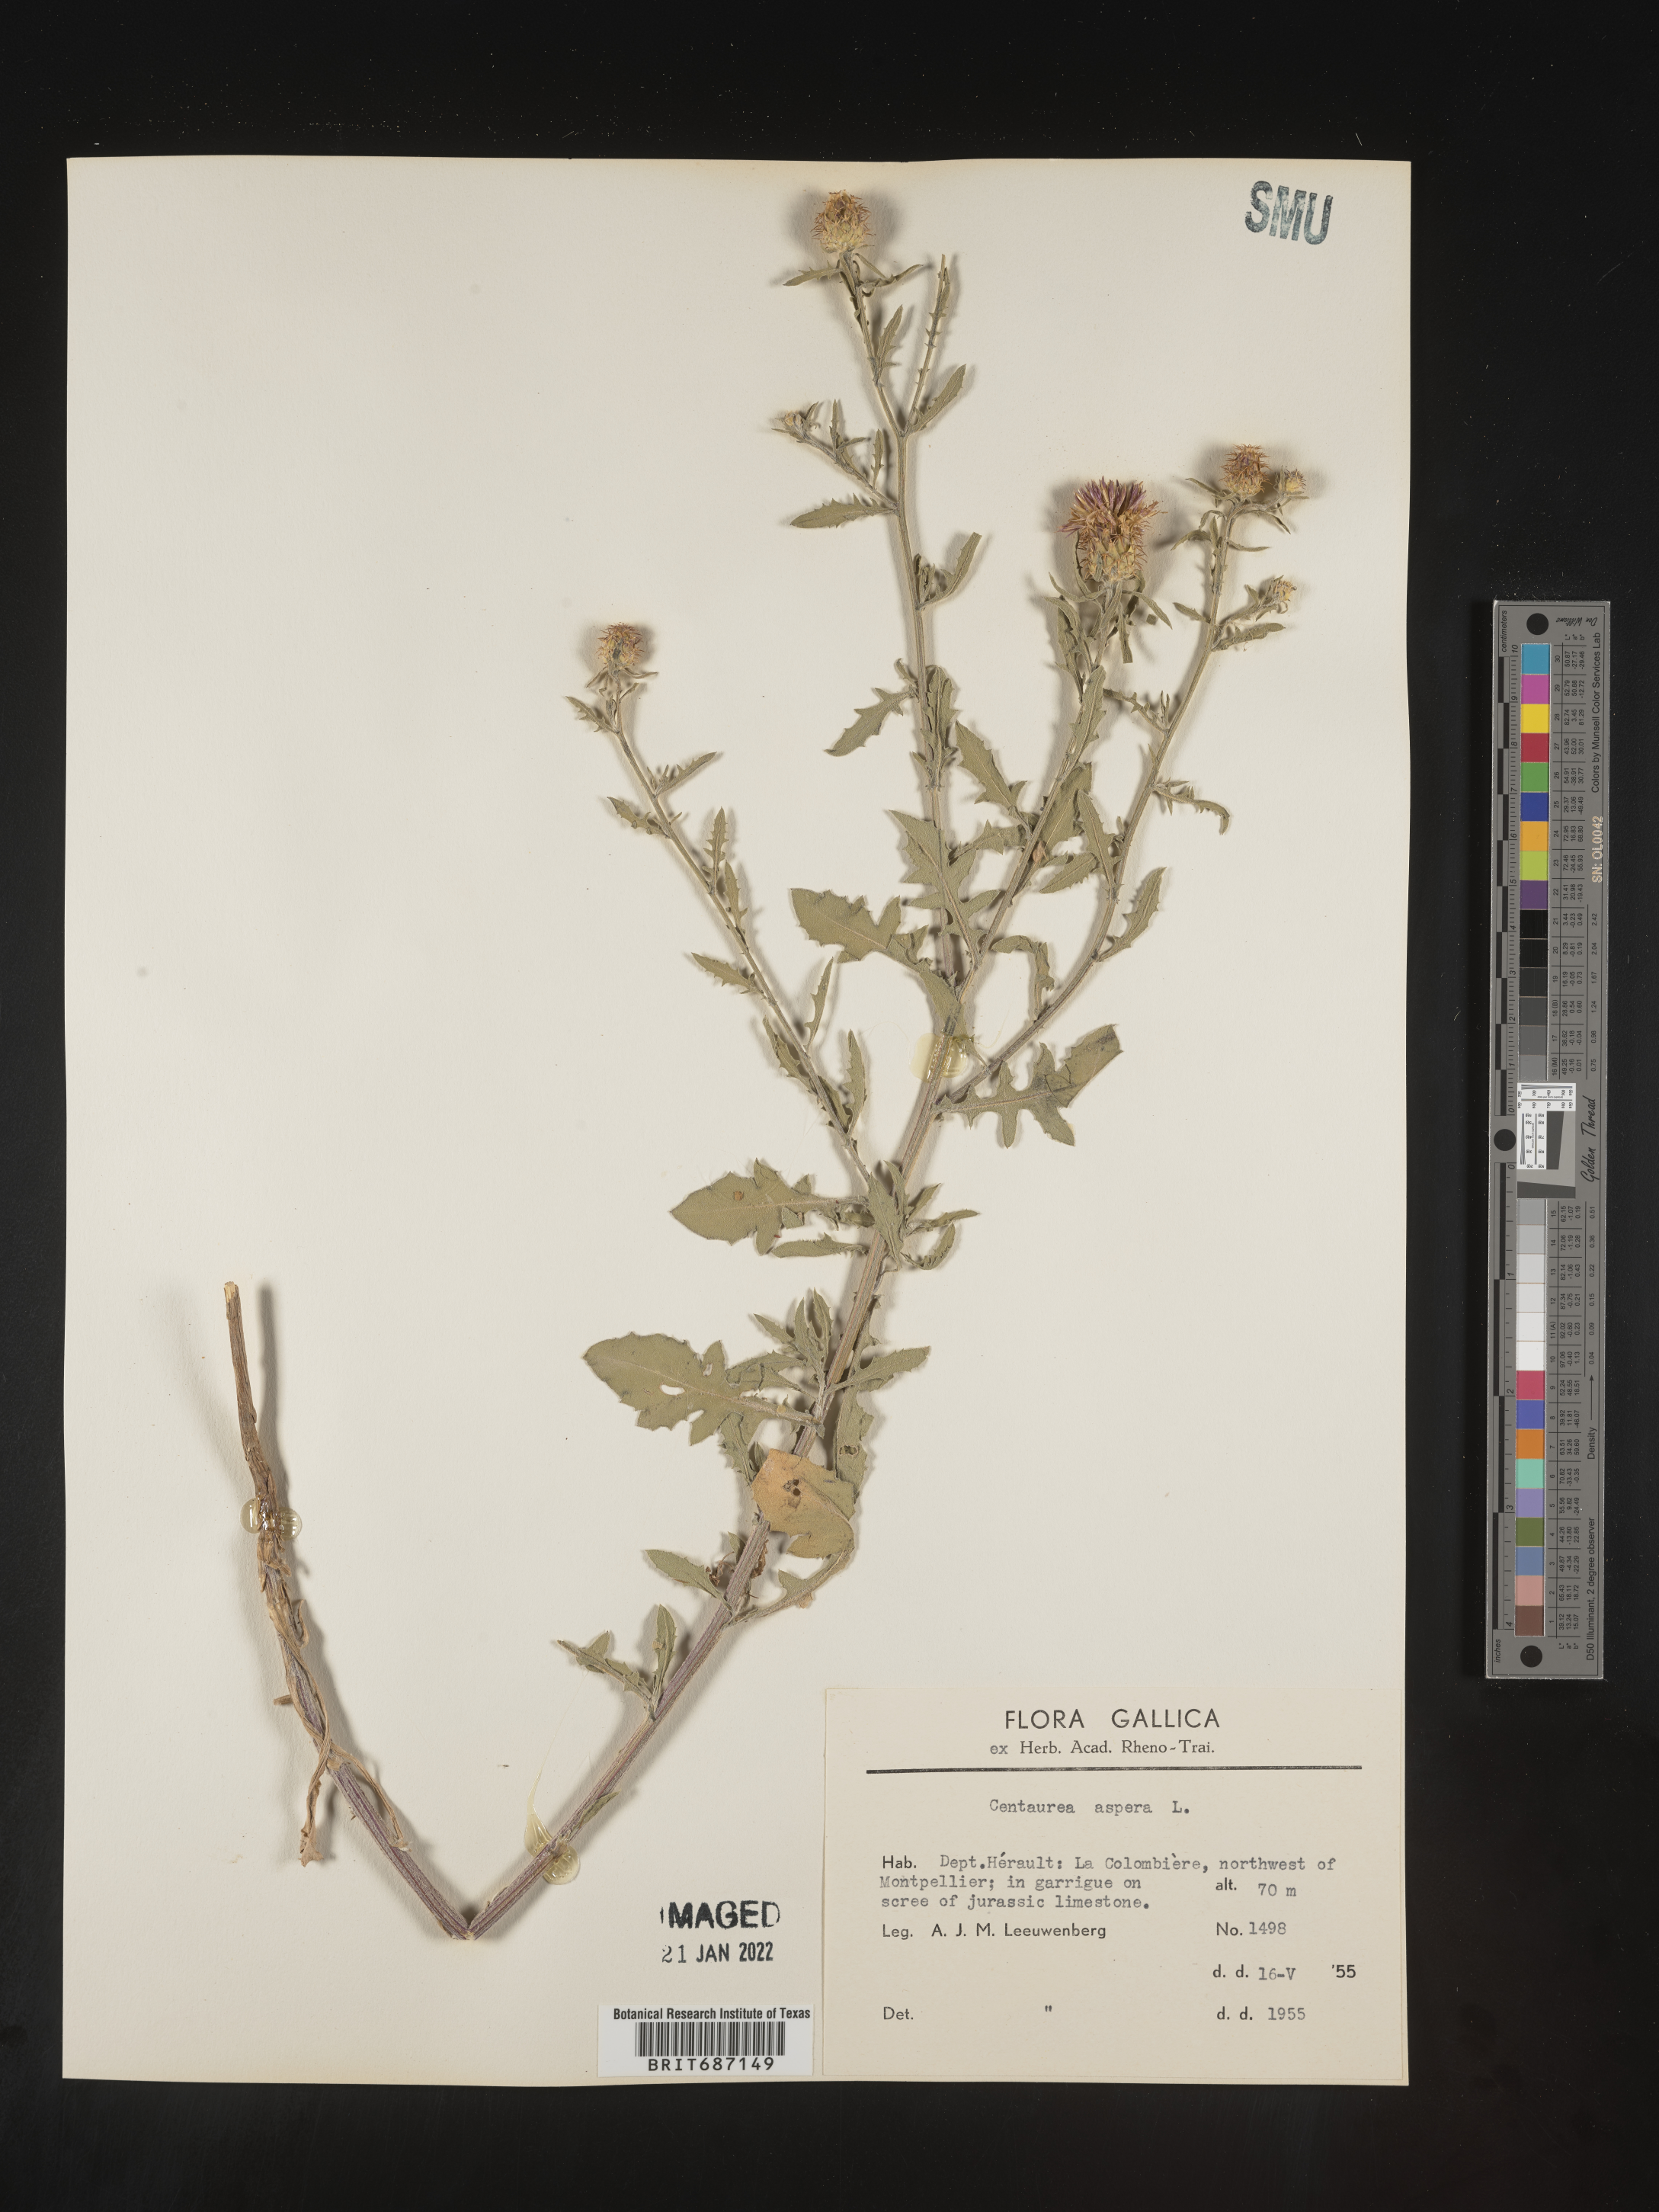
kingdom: Plantae
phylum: Tracheophyta
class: Magnoliopsida
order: Asterales
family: Asteraceae
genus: Centaurea
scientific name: Centaurea
